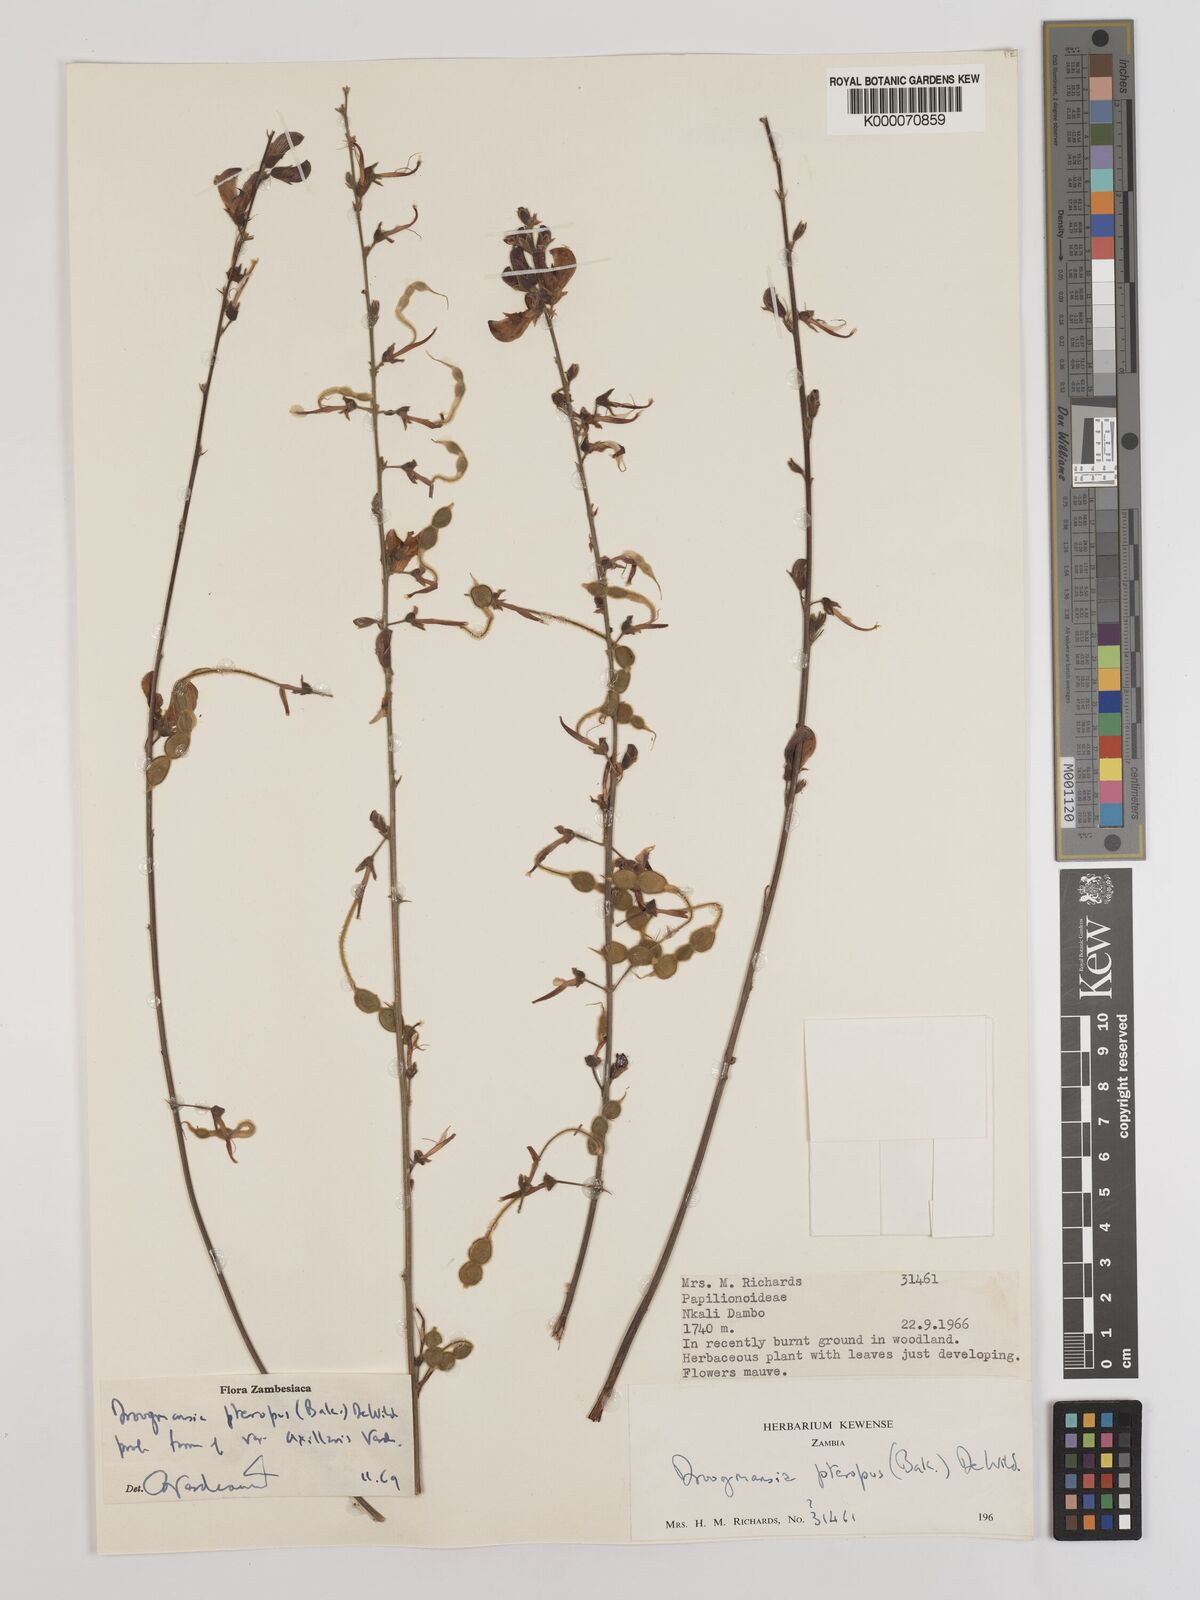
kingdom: Plantae
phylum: Tracheophyta
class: Magnoliopsida
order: Fabales
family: Fabaceae
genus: Droogmansia
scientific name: Droogmansia pteropus
